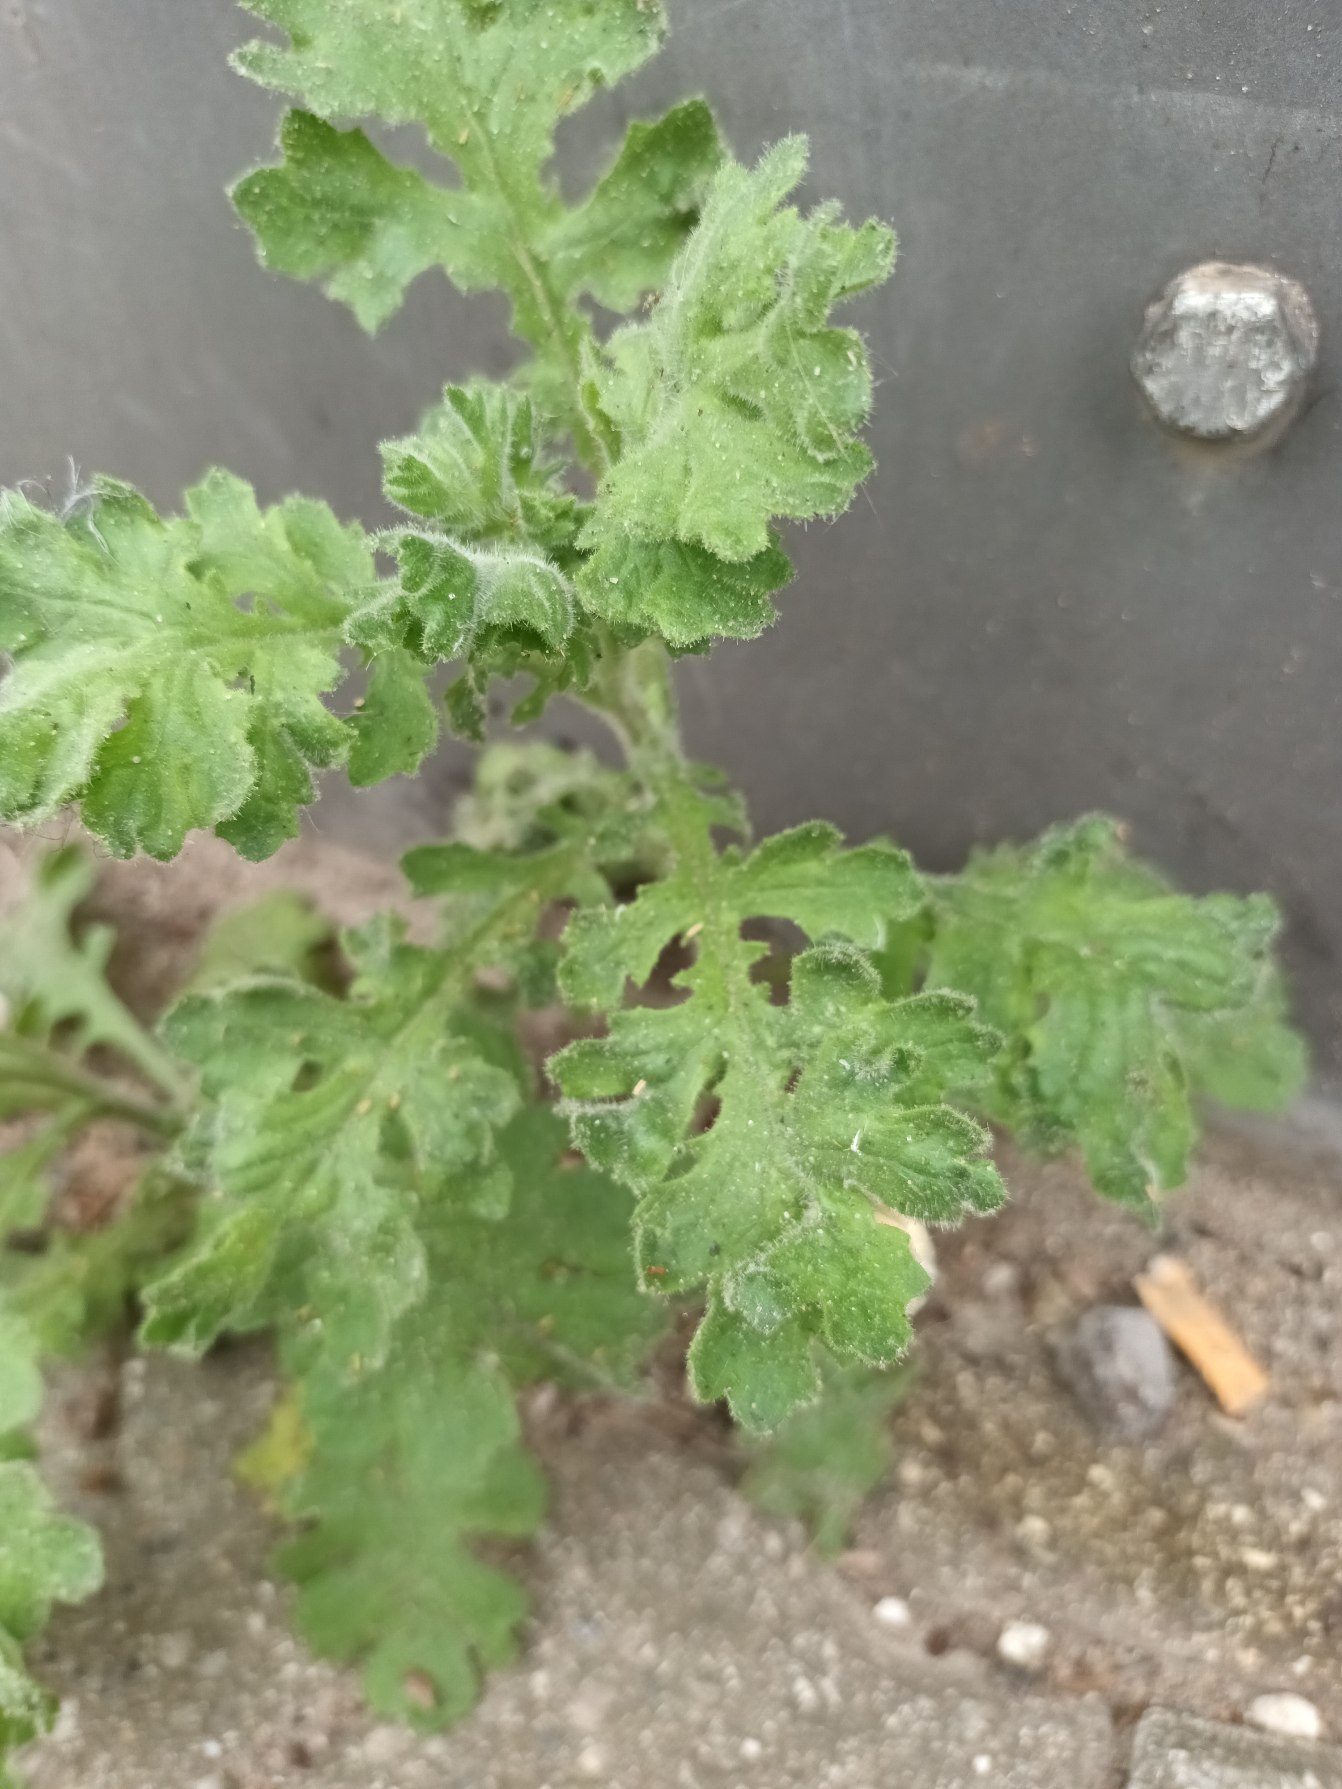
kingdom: Plantae
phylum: Tracheophyta
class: Magnoliopsida
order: Asterales
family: Asteraceae
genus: Senecio
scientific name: Senecio viscosus
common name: Klæbrig brandbæger
